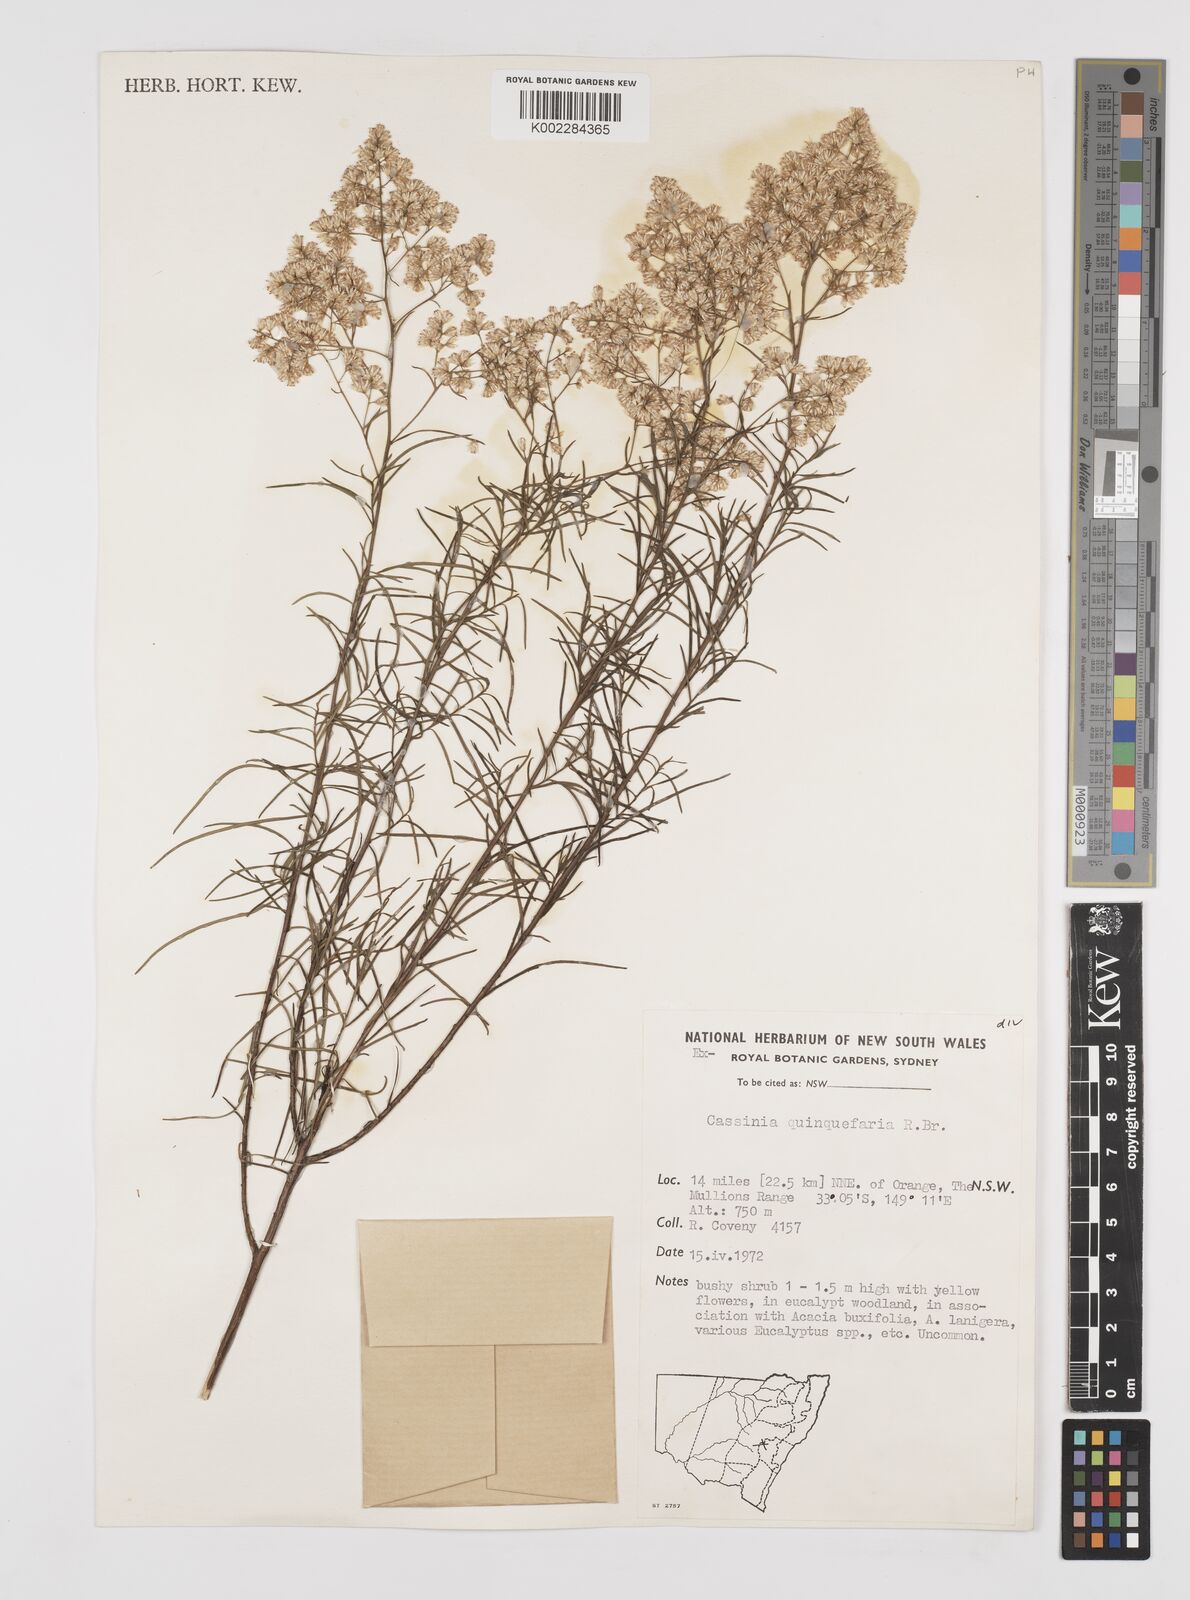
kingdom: Plantae
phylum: Tracheophyta
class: Magnoliopsida
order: Asterales
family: Asteraceae
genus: Cassinia
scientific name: Cassinia quinquefaria
